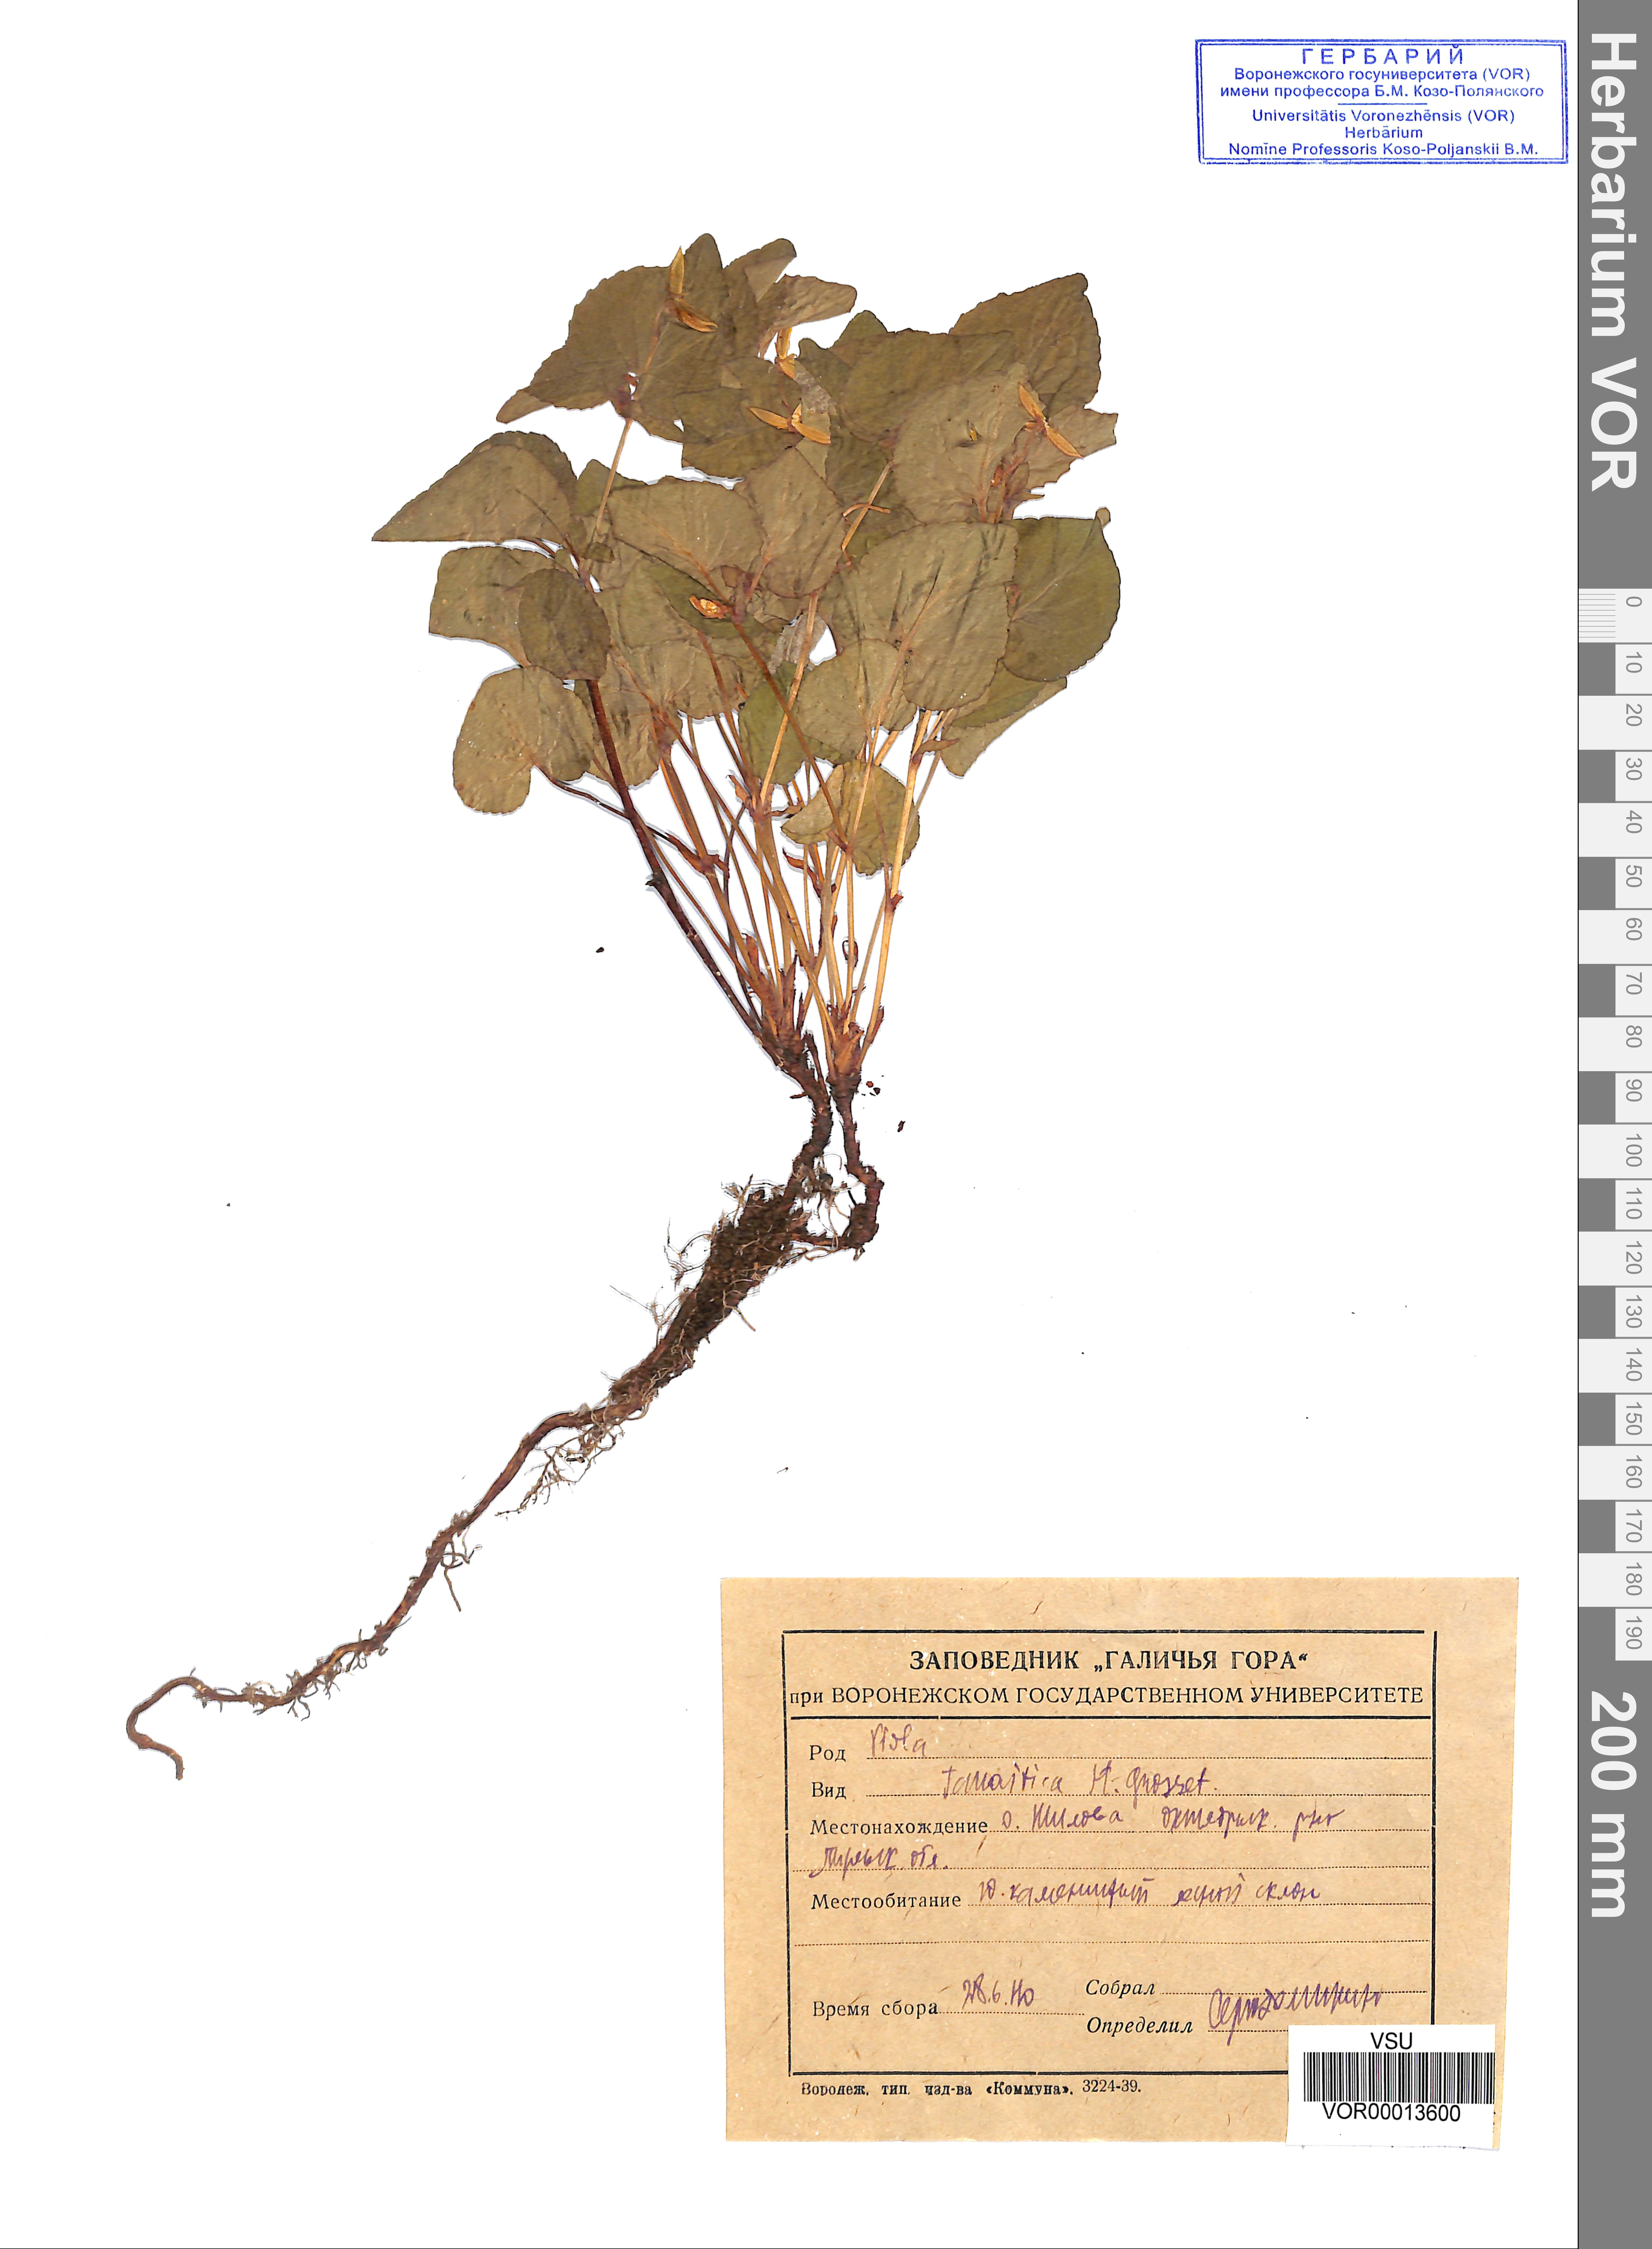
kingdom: Plantae
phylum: Tracheophyta
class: Magnoliopsida
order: Malpighiales
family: Violaceae
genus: Viola
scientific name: Viola tanaitica
